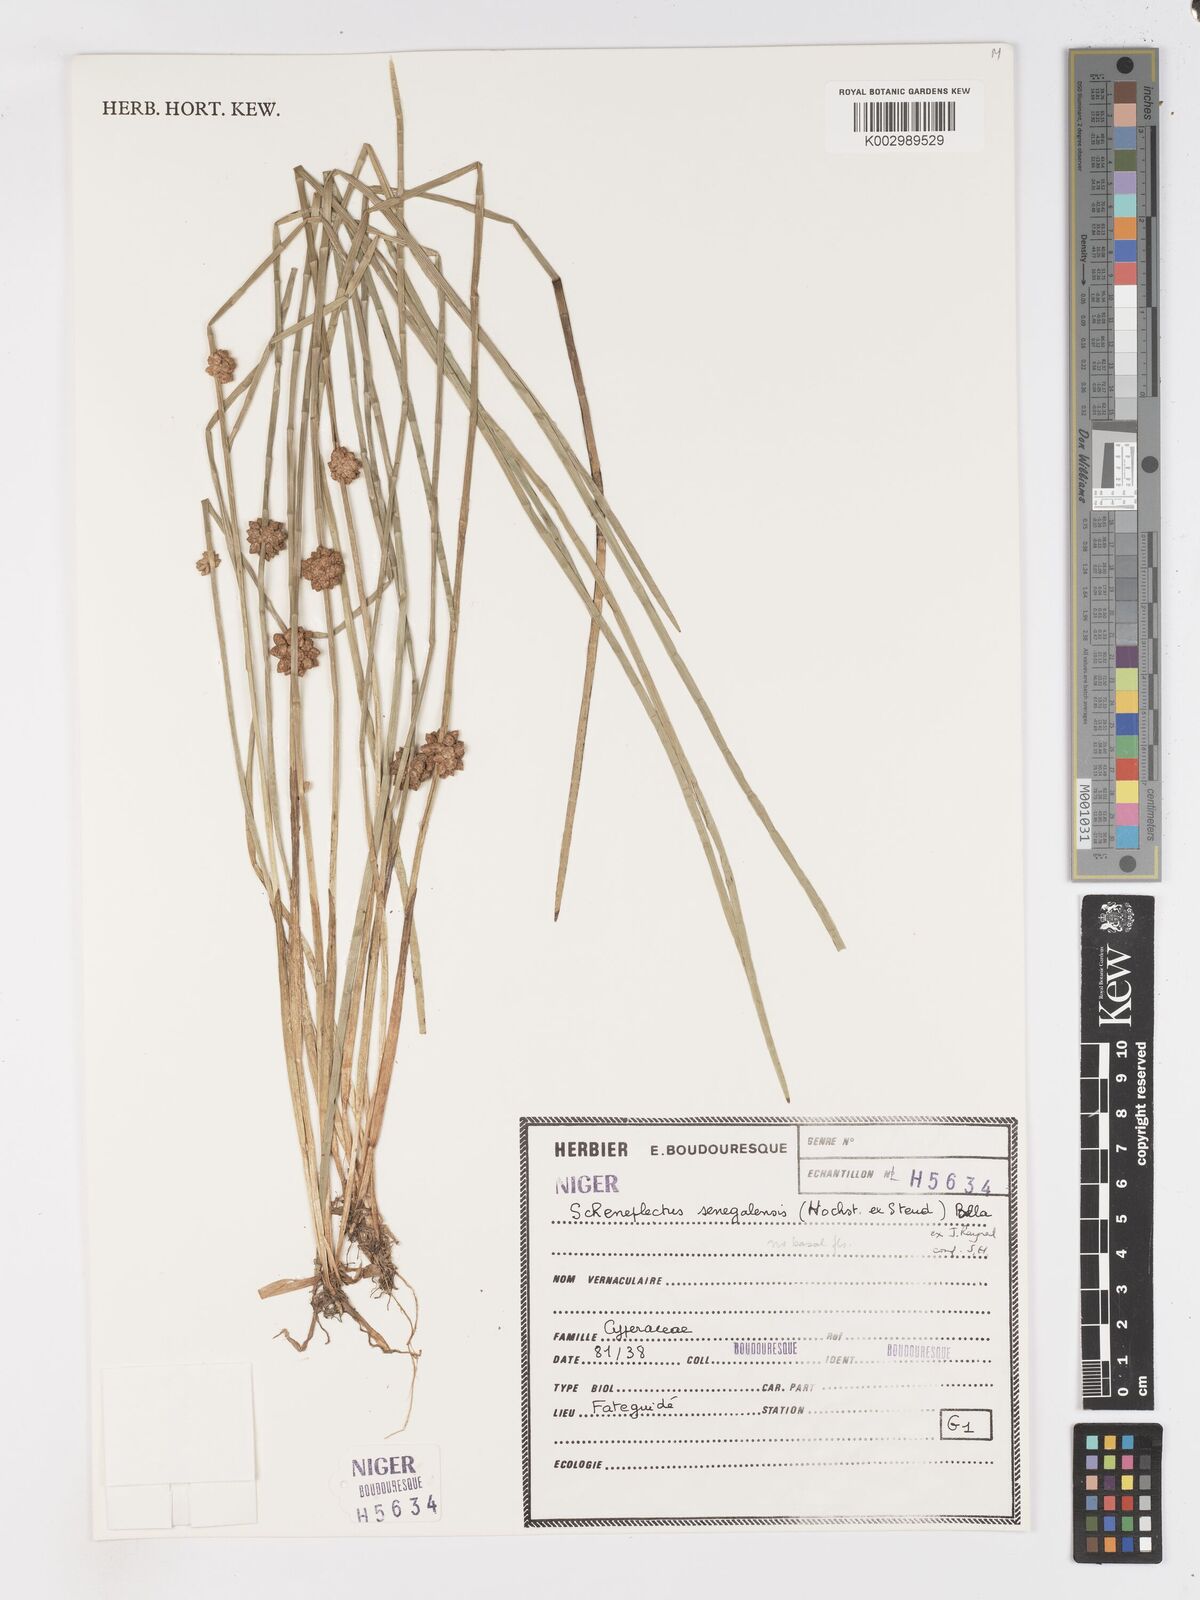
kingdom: Plantae
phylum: Tracheophyta
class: Liliopsida
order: Poales
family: Cyperaceae
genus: Schoenoplectiella
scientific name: Schoenoplectiella praelongata
